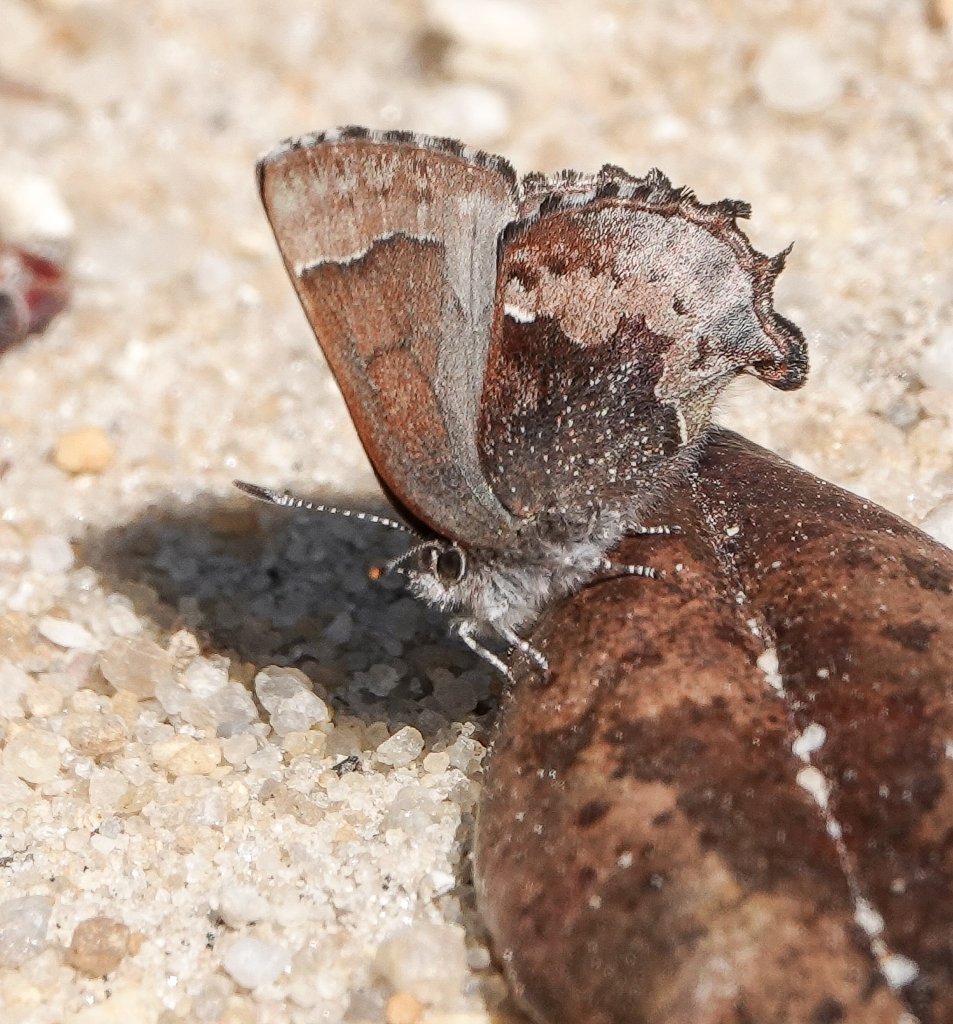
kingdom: Animalia
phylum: Arthropoda
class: Insecta
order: Lepidoptera
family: Lycaenidae
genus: Incisalia
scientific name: Incisalia henrici
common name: Henry's Elfin
